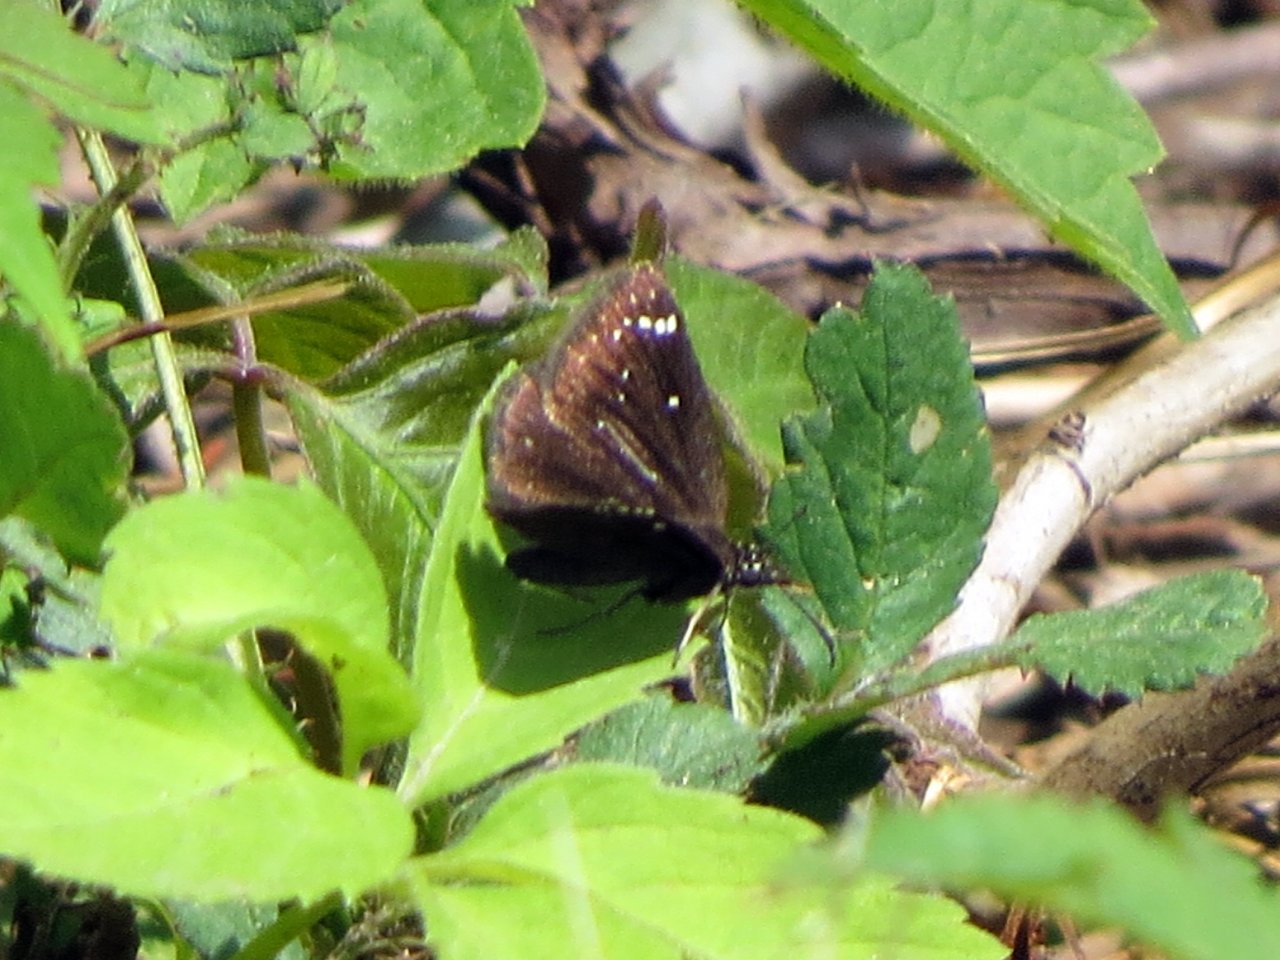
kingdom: Animalia
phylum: Arthropoda
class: Insecta
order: Lepidoptera
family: Hesperiidae
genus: Pholisora
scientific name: Pholisora catullus
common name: Common Sootywing
